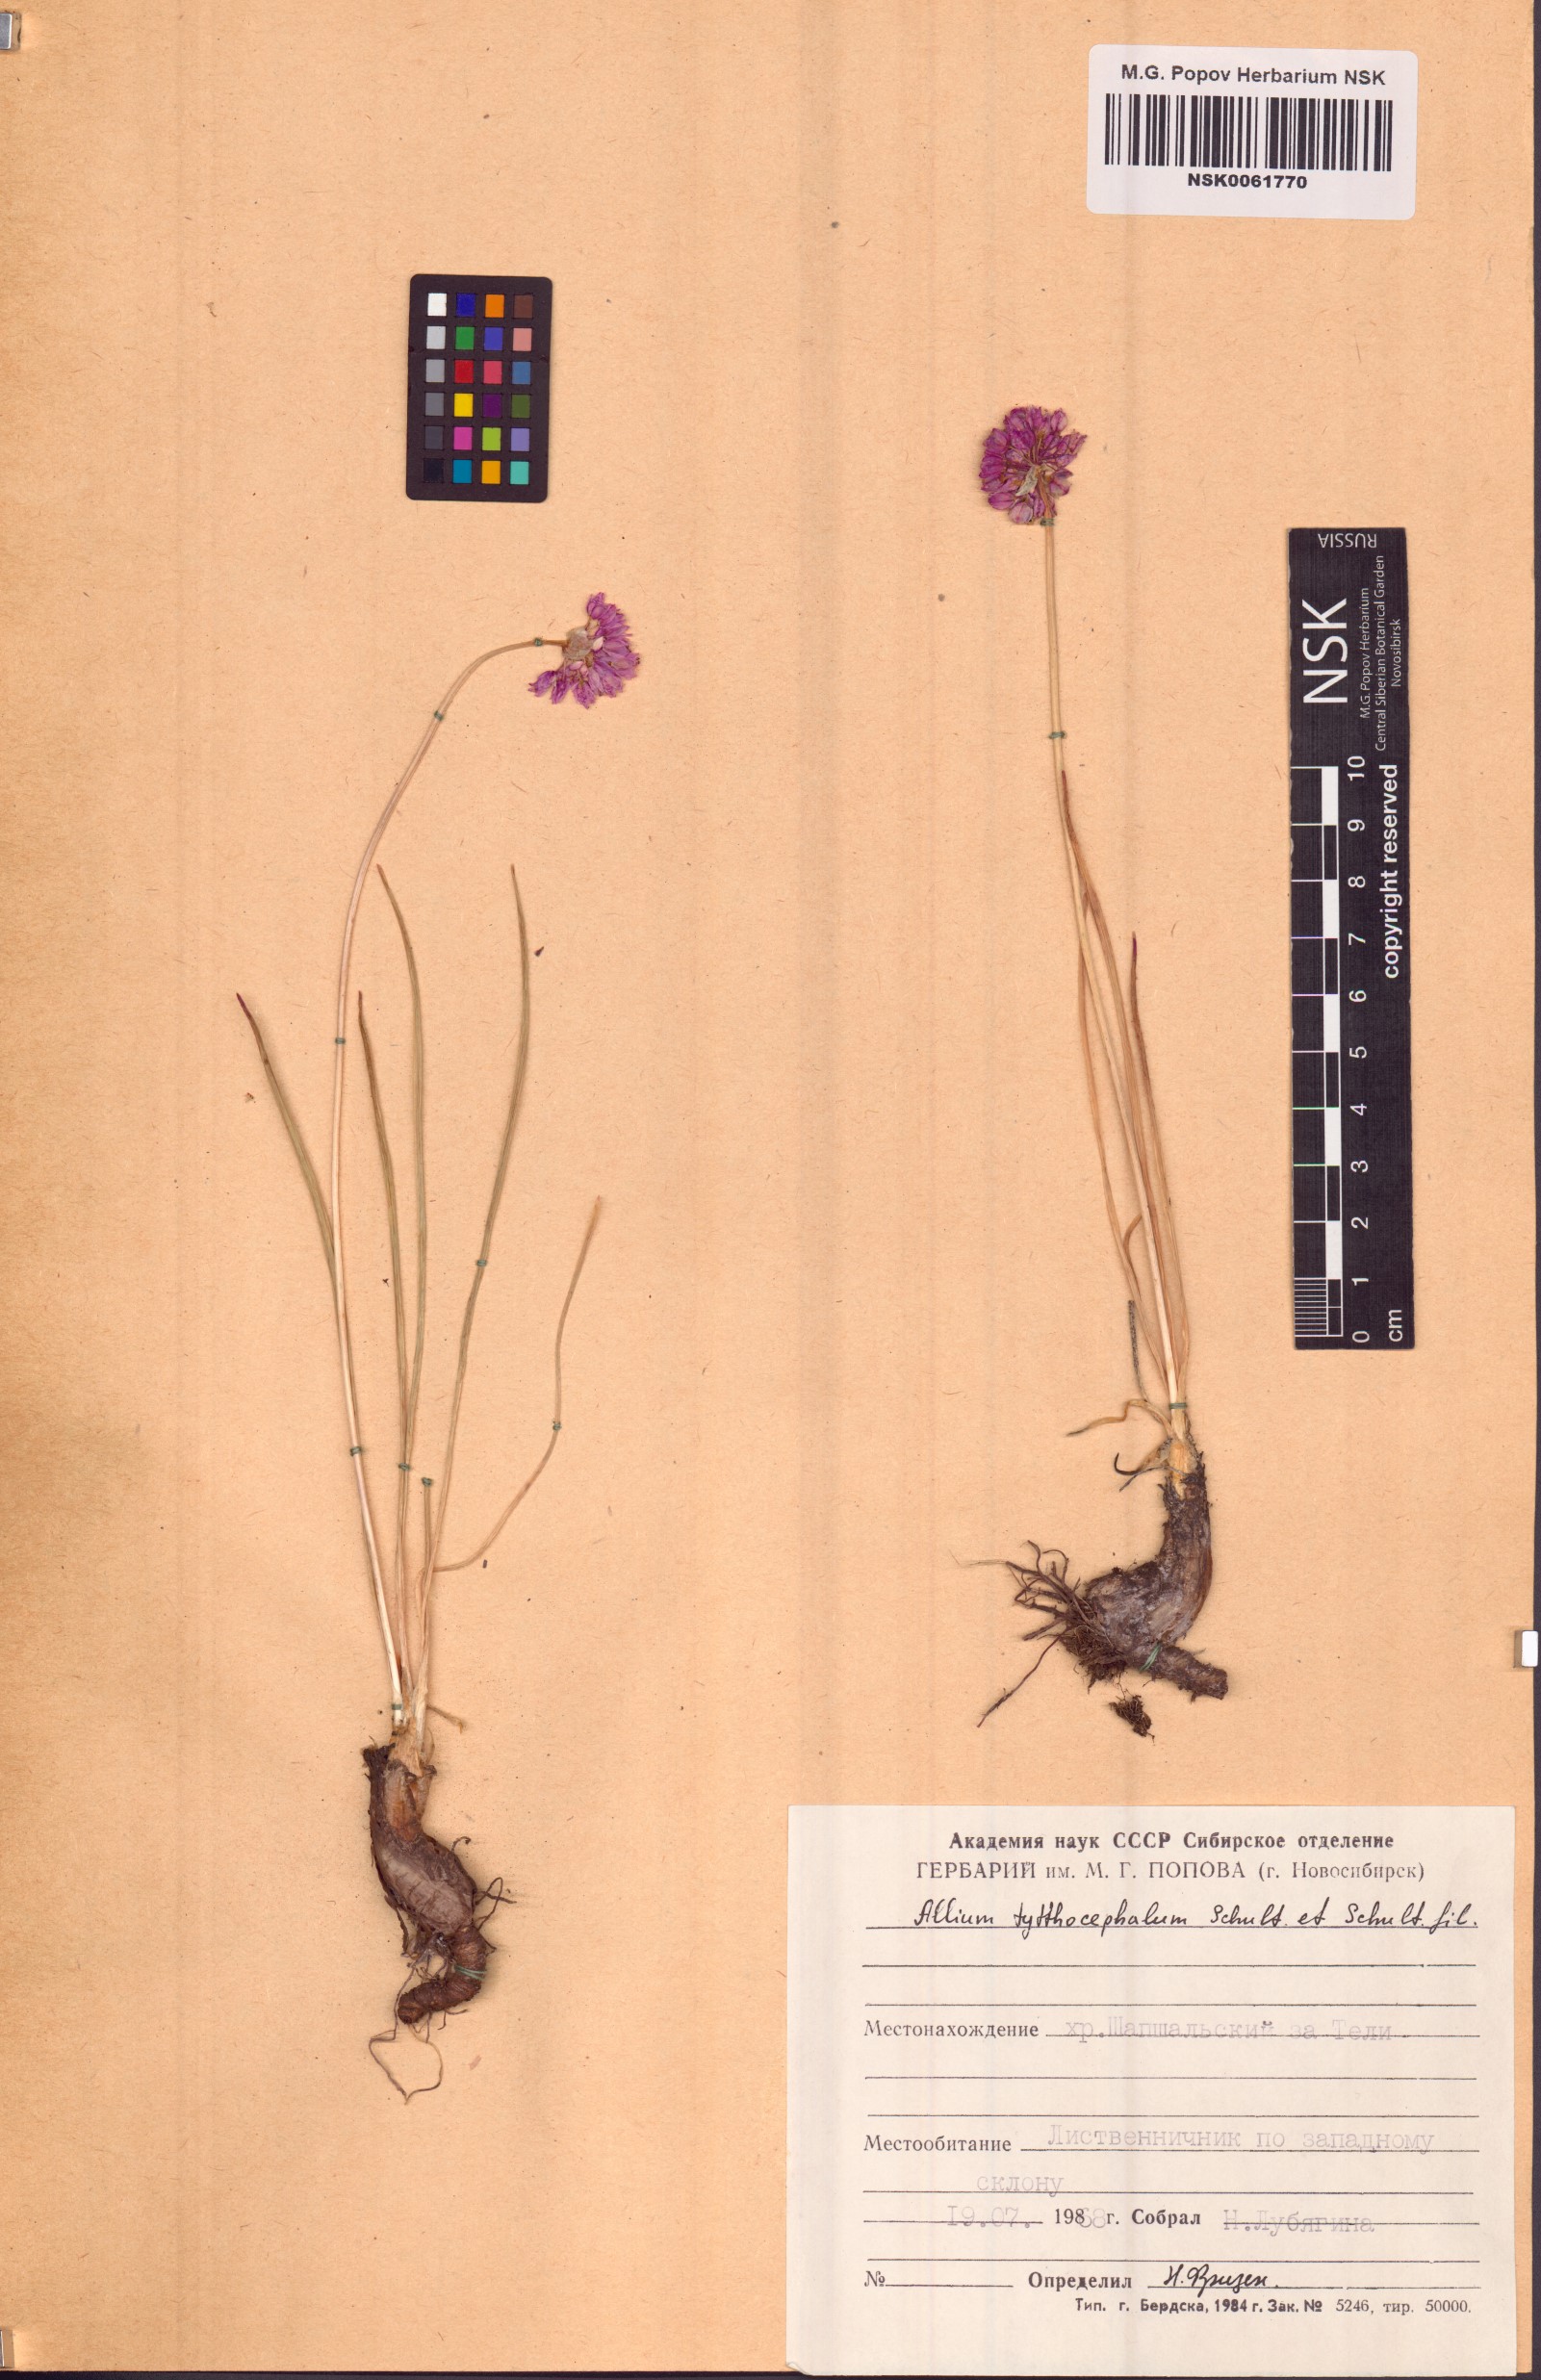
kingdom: Plantae
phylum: Tracheophyta
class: Liliopsida
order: Asparagales
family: Amaryllidaceae
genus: Allium
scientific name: Allium tytthocephalum
